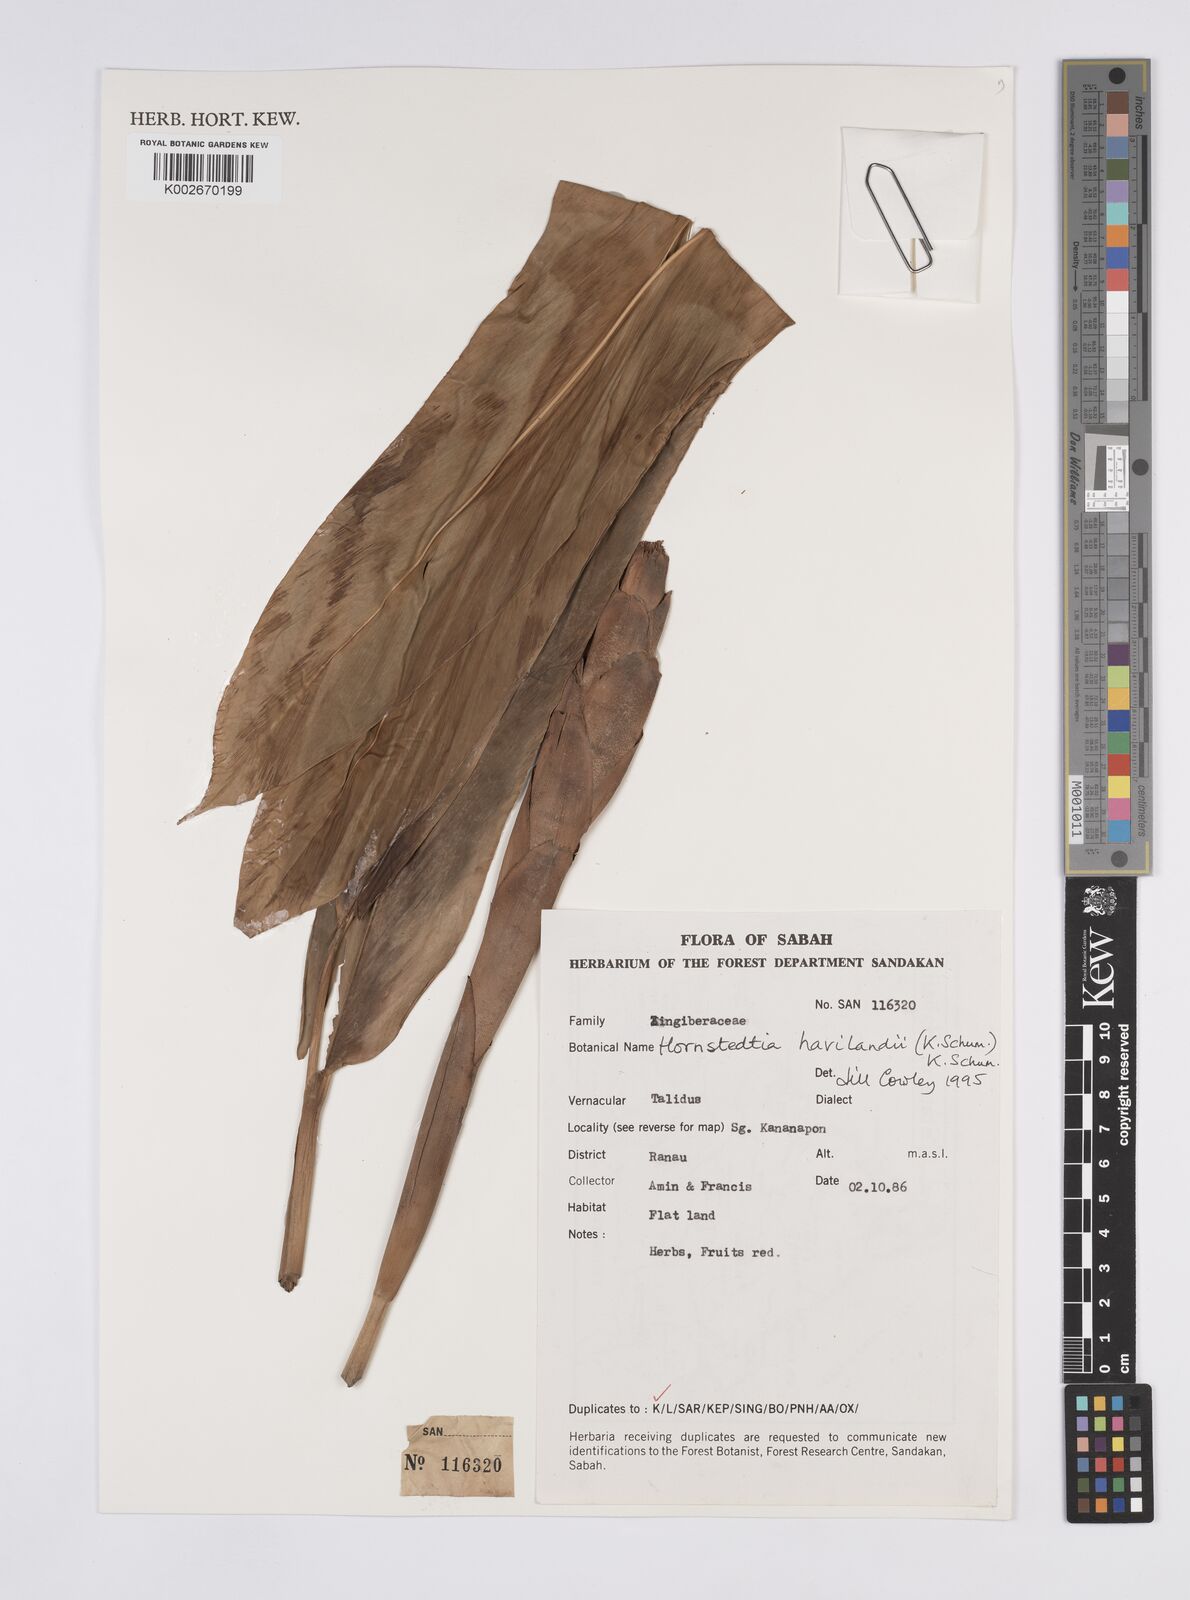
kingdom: Plantae
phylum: Tracheophyta
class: Liliopsida
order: Zingiberales
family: Zingiberaceae
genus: Hornstedtia
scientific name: Hornstedtia havilandii
